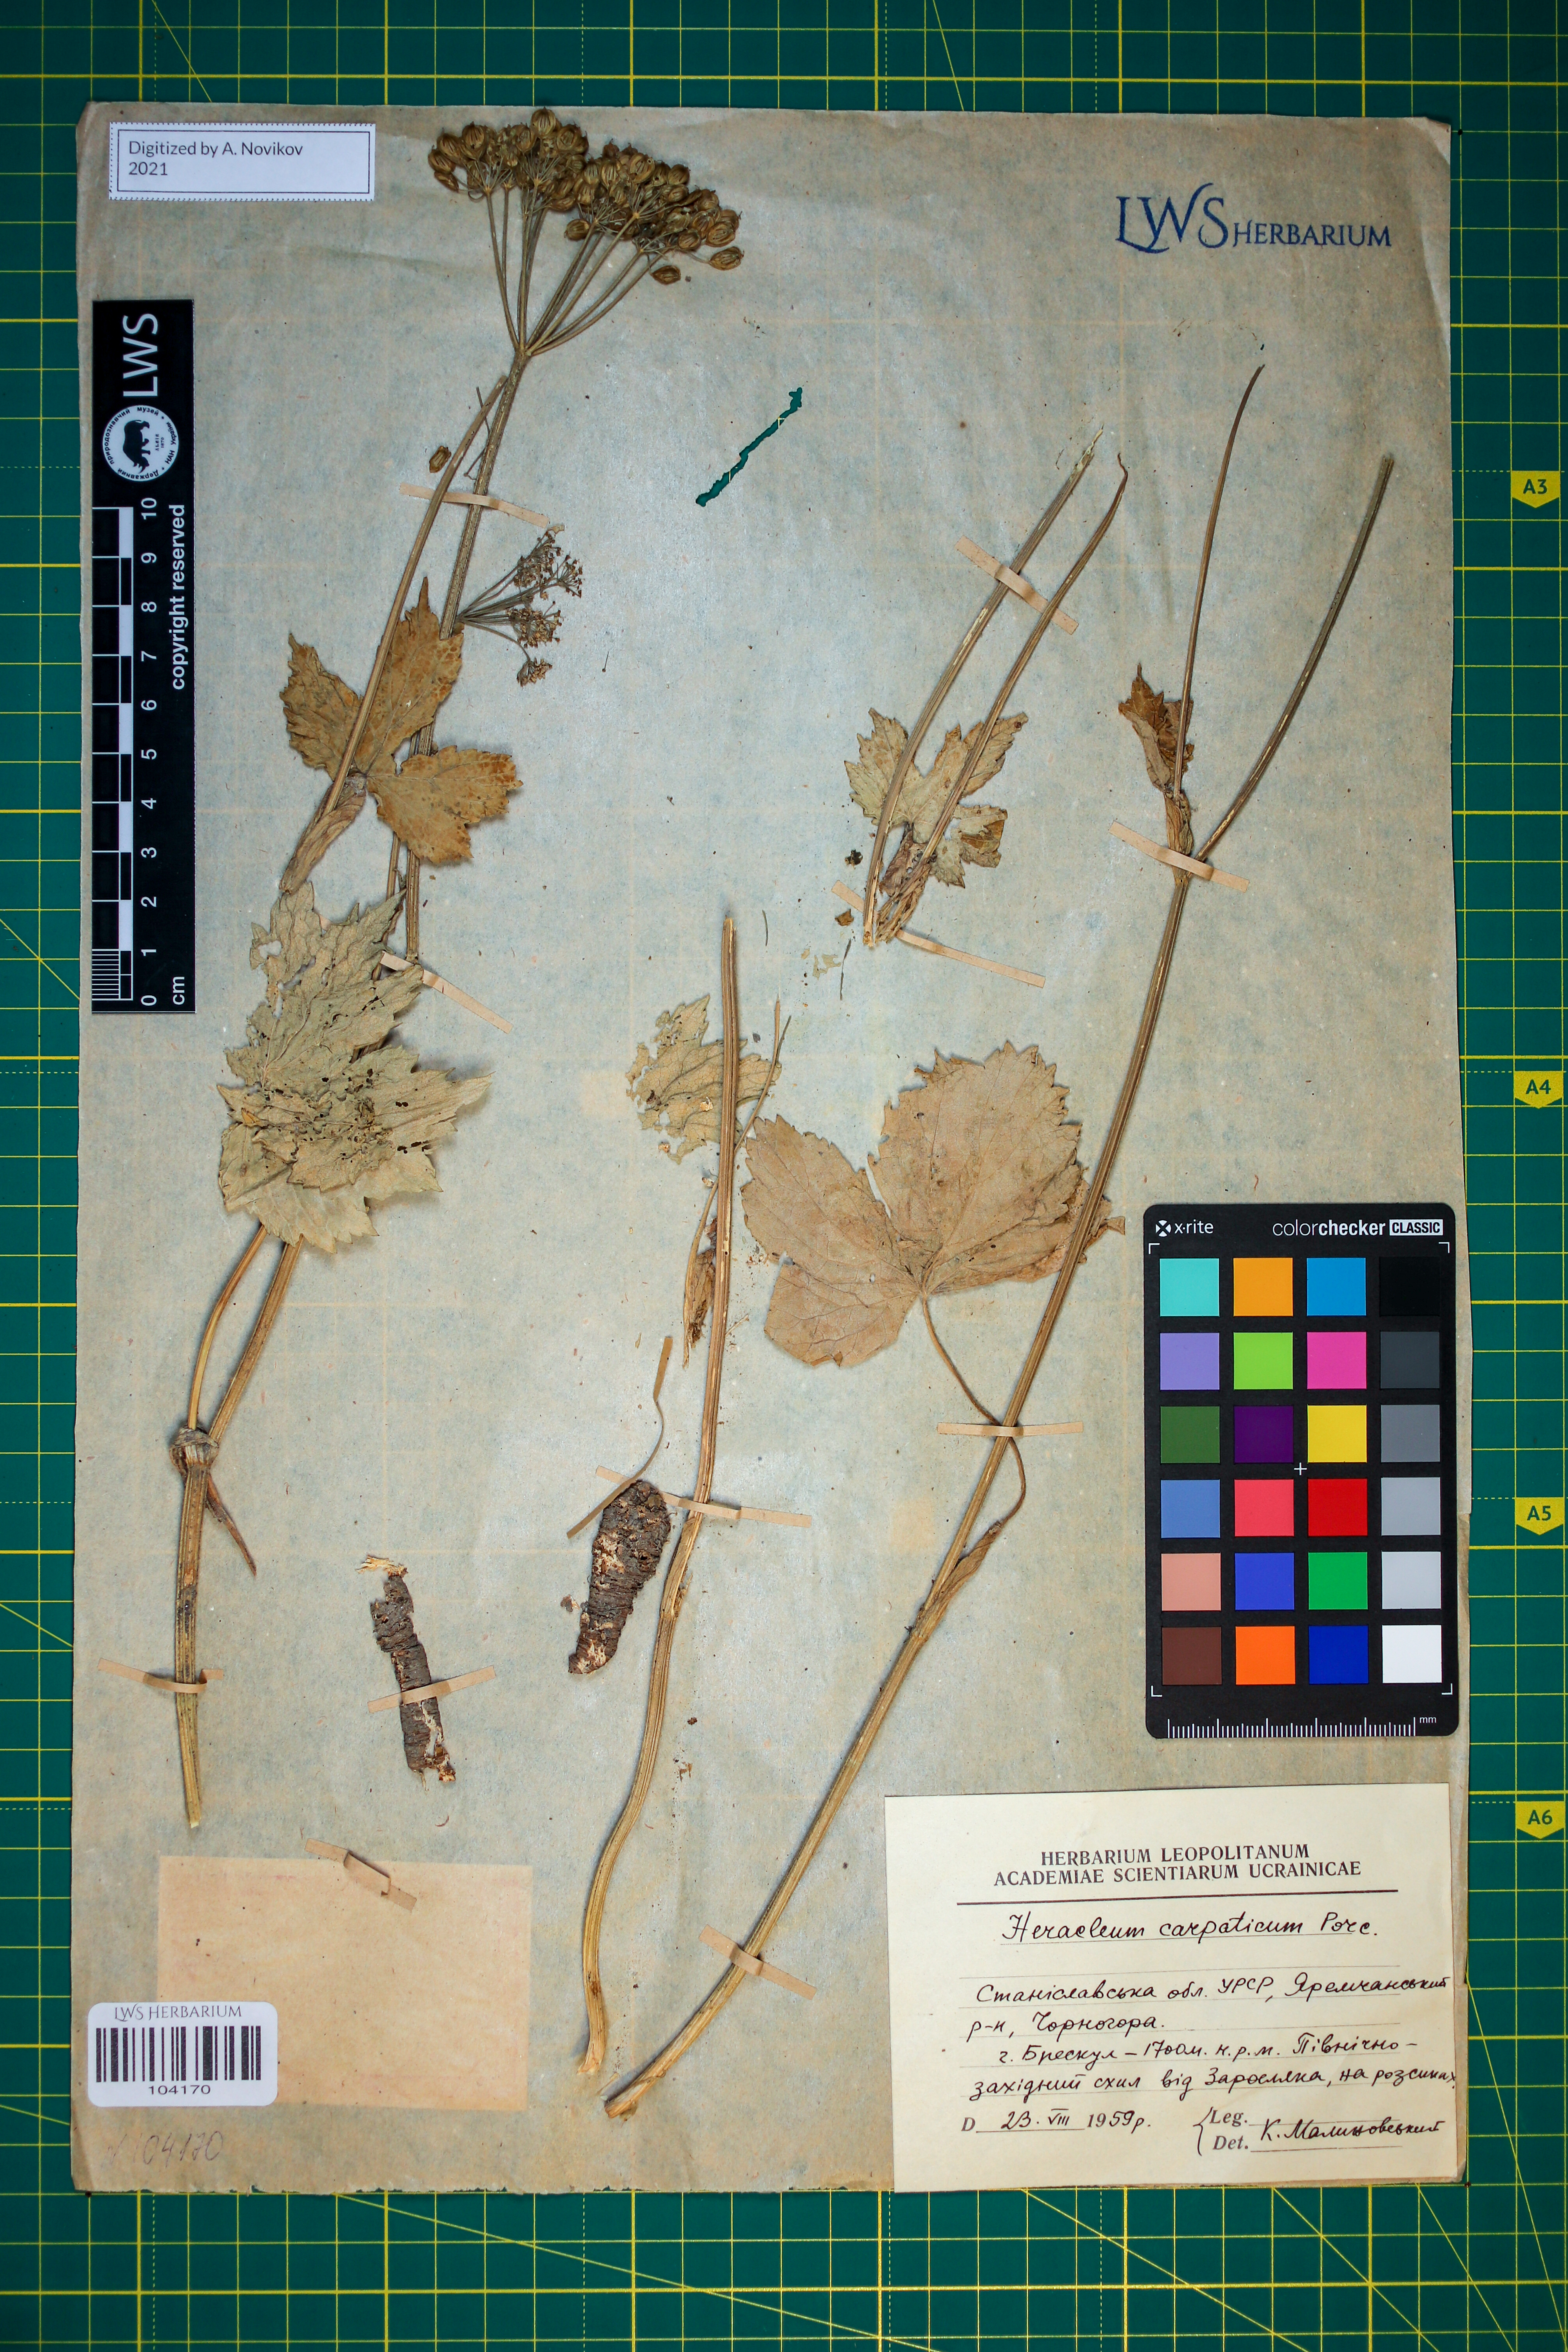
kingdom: Plantae
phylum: Tracheophyta
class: Magnoliopsida
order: Apiales
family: Apiaceae
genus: Heracleum
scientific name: Heracleum carpaticum
